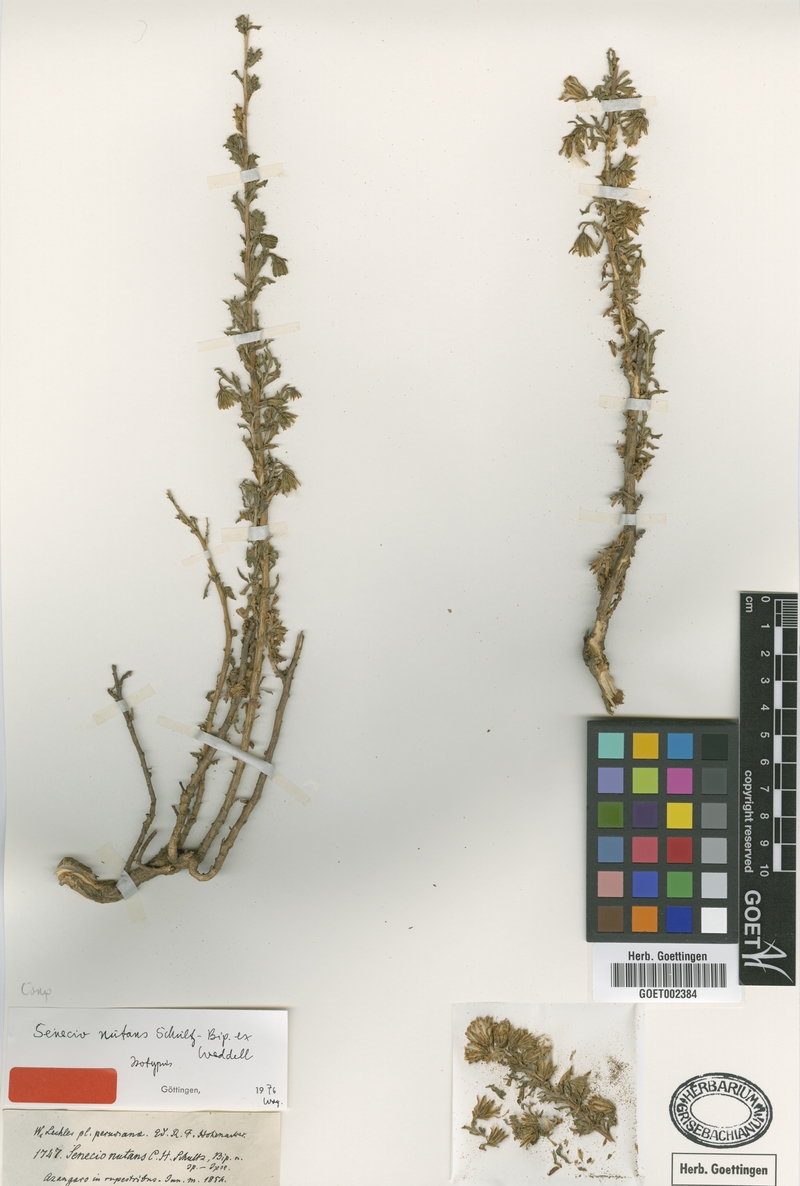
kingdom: Plantae
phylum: Tracheophyta
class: Magnoliopsida
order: Asterales
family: Asteraceae
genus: Senecio
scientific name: Senecio nutans
